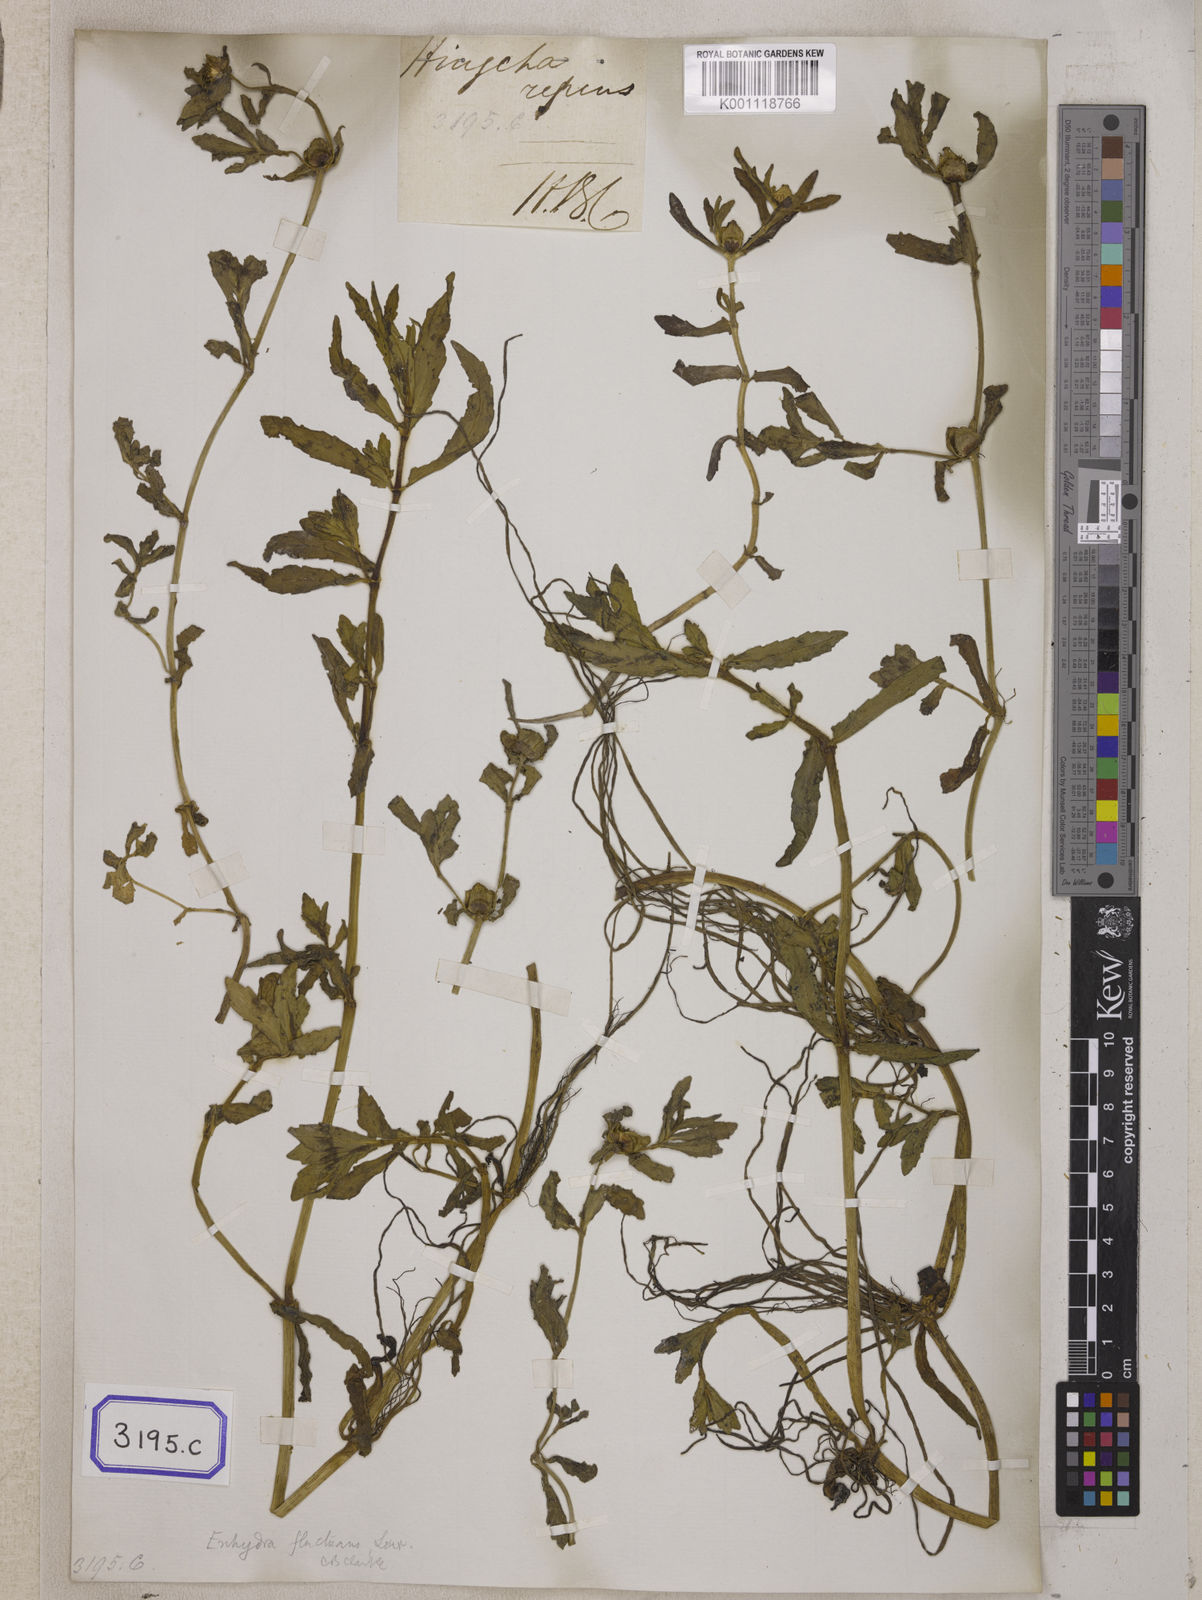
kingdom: Plantae
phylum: Tracheophyta
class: Magnoliopsida
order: Asterales
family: Asteraceae
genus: Enydra
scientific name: Enydra fluctuans
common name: Buffalo spinach
